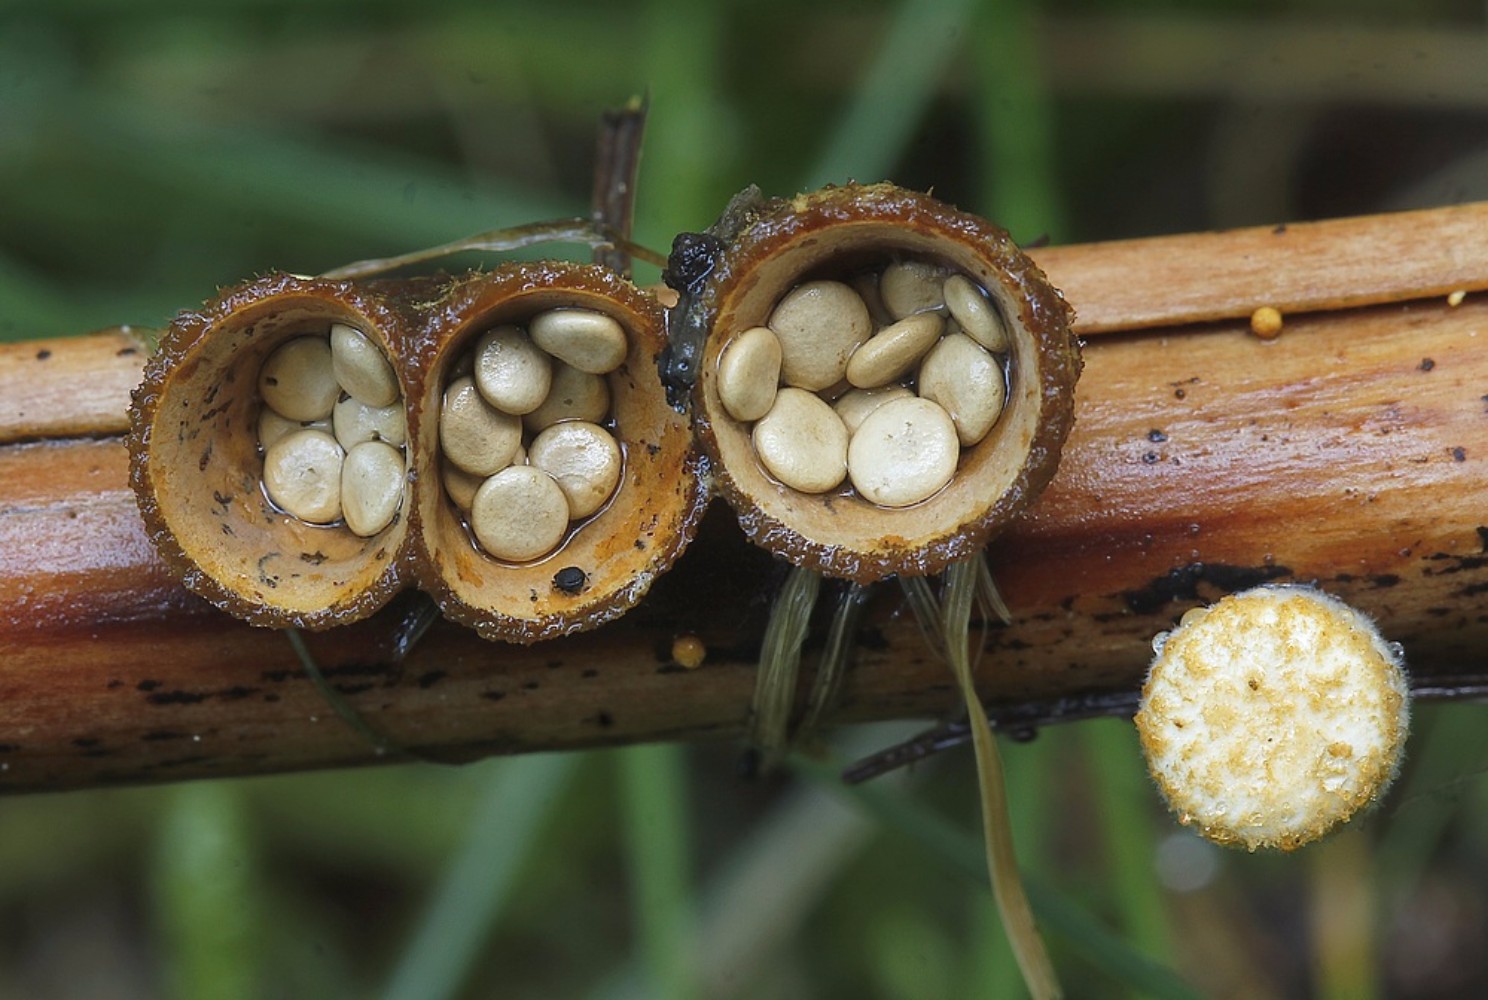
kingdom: Fungi
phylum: Basidiomycota
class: Agaricomycetes
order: Agaricales
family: Nidulariaceae
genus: Crucibulum
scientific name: Crucibulum crucibuliforme
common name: krukkesvamp
